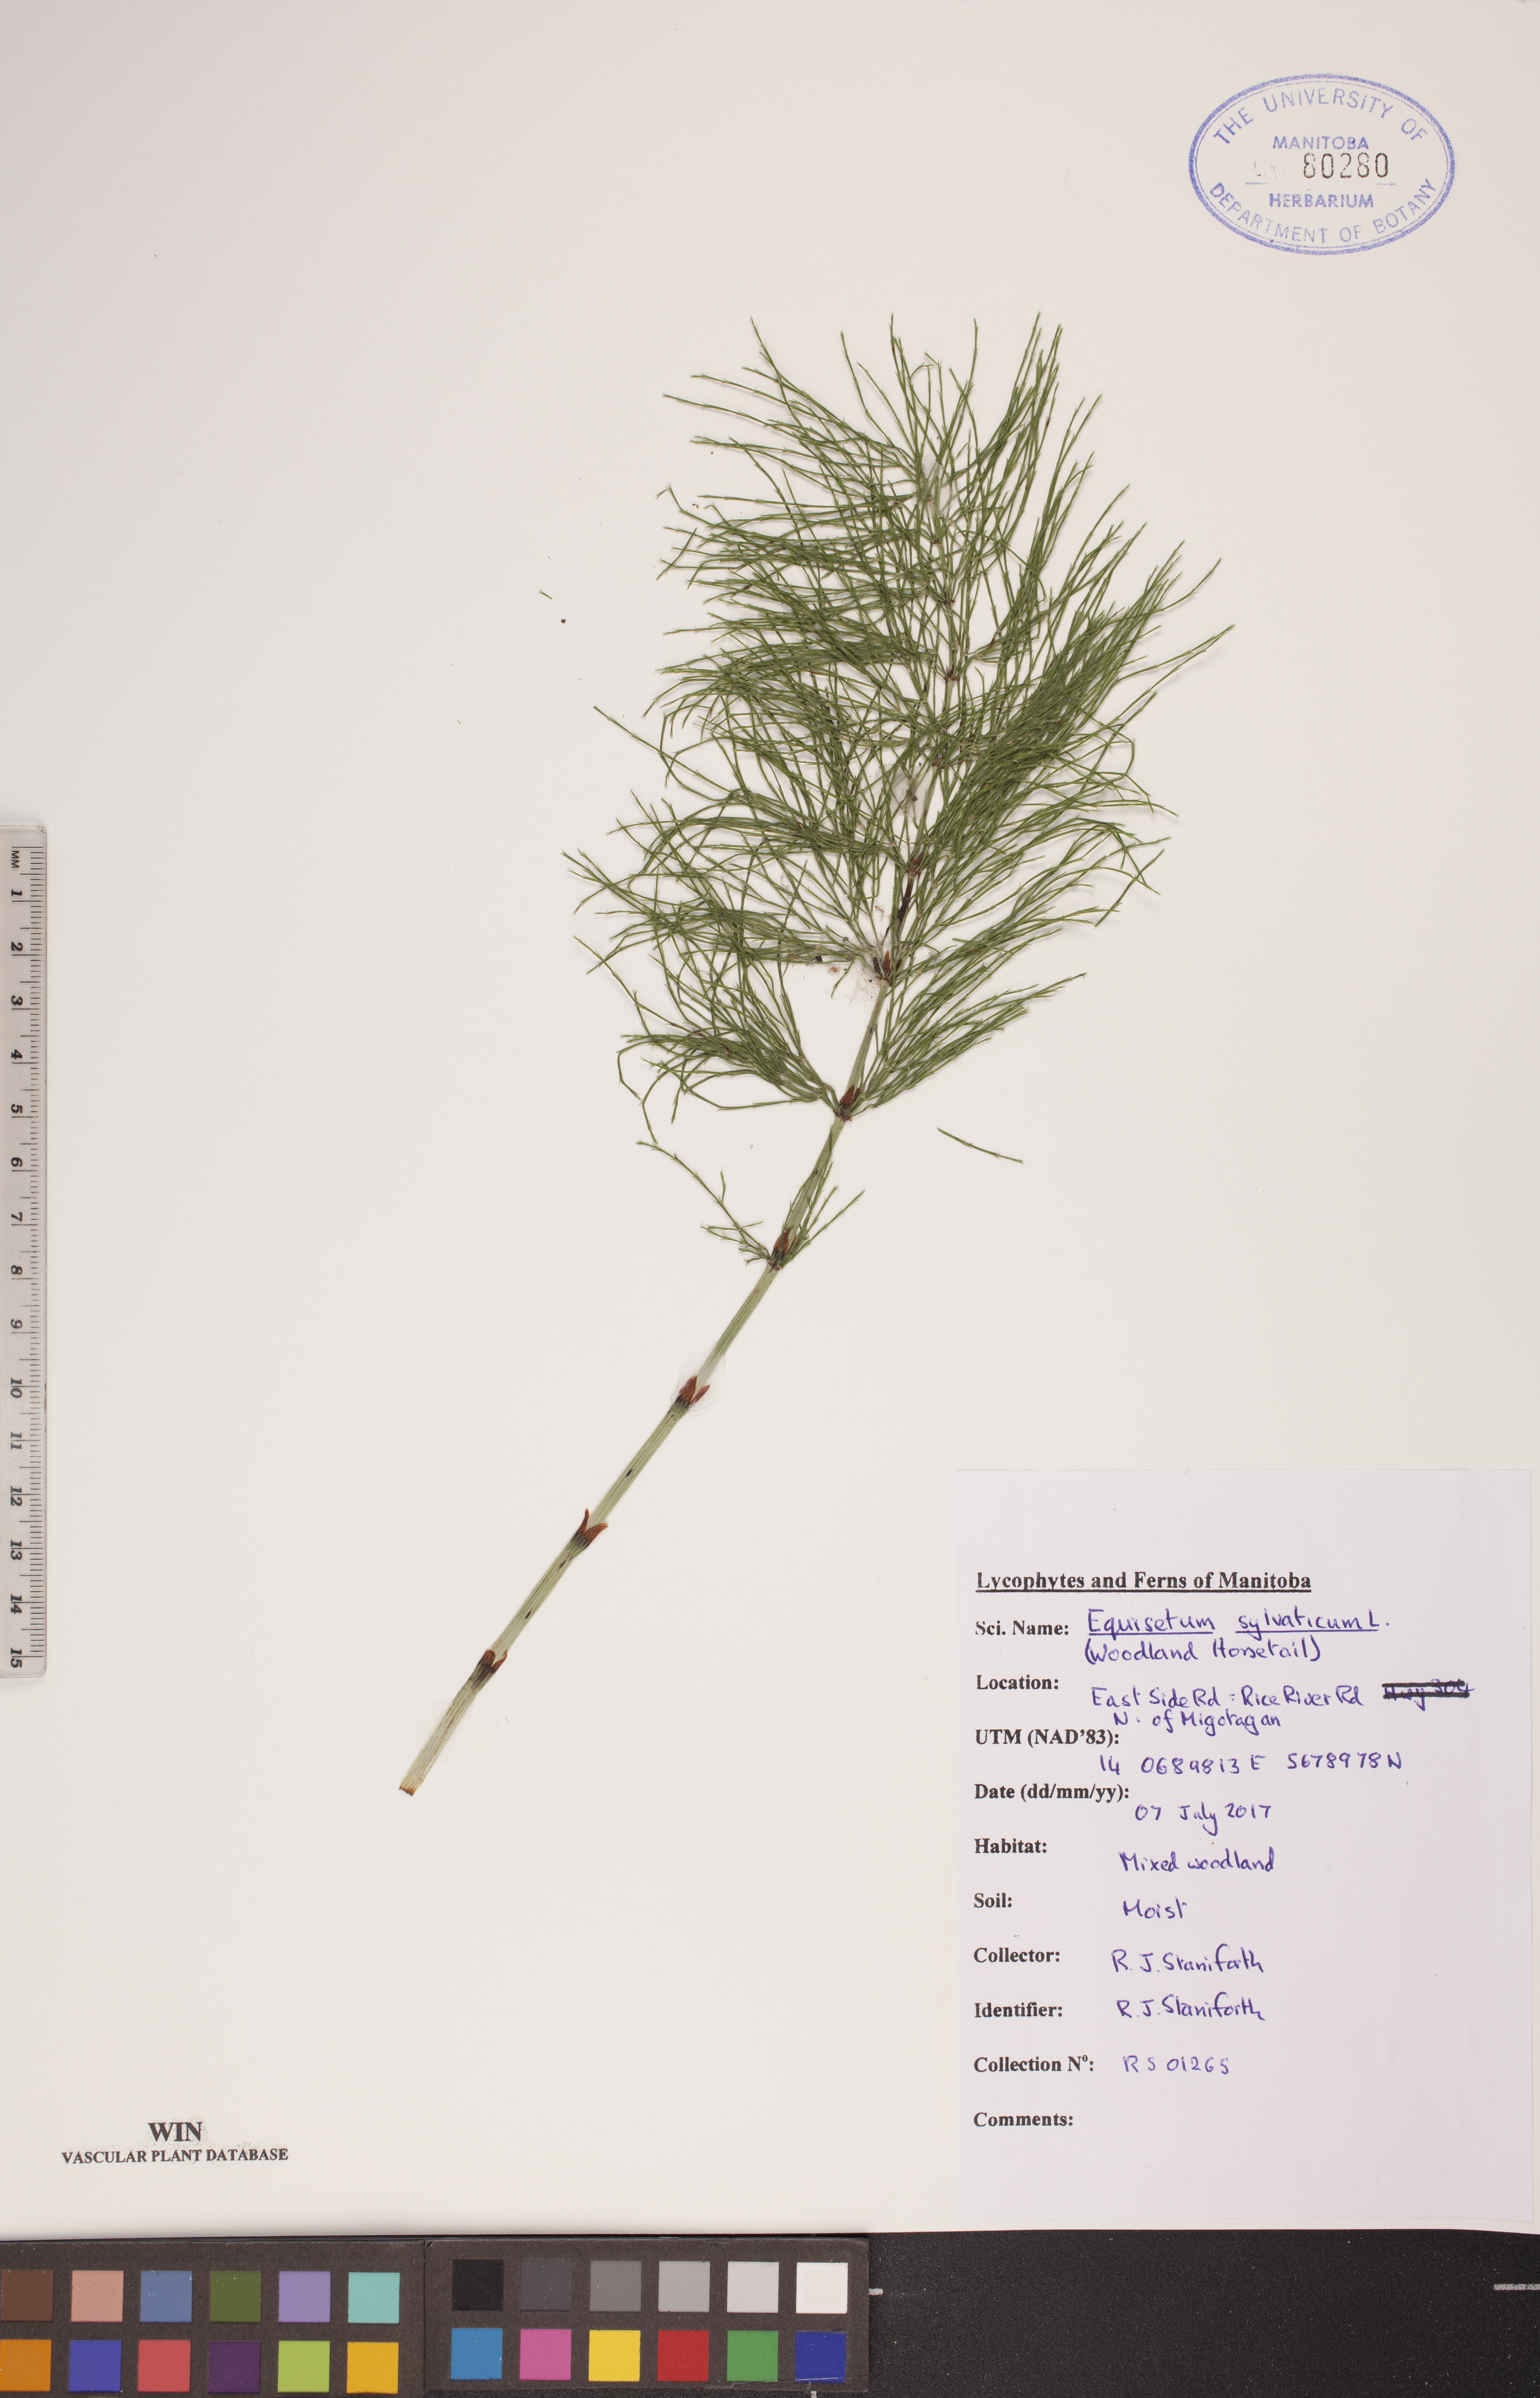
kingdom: Plantae
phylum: Tracheophyta
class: Polypodiopsida
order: Equisetales
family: Equisetaceae
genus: Equisetum
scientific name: Equisetum sylvaticum
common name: Wood horsetail
